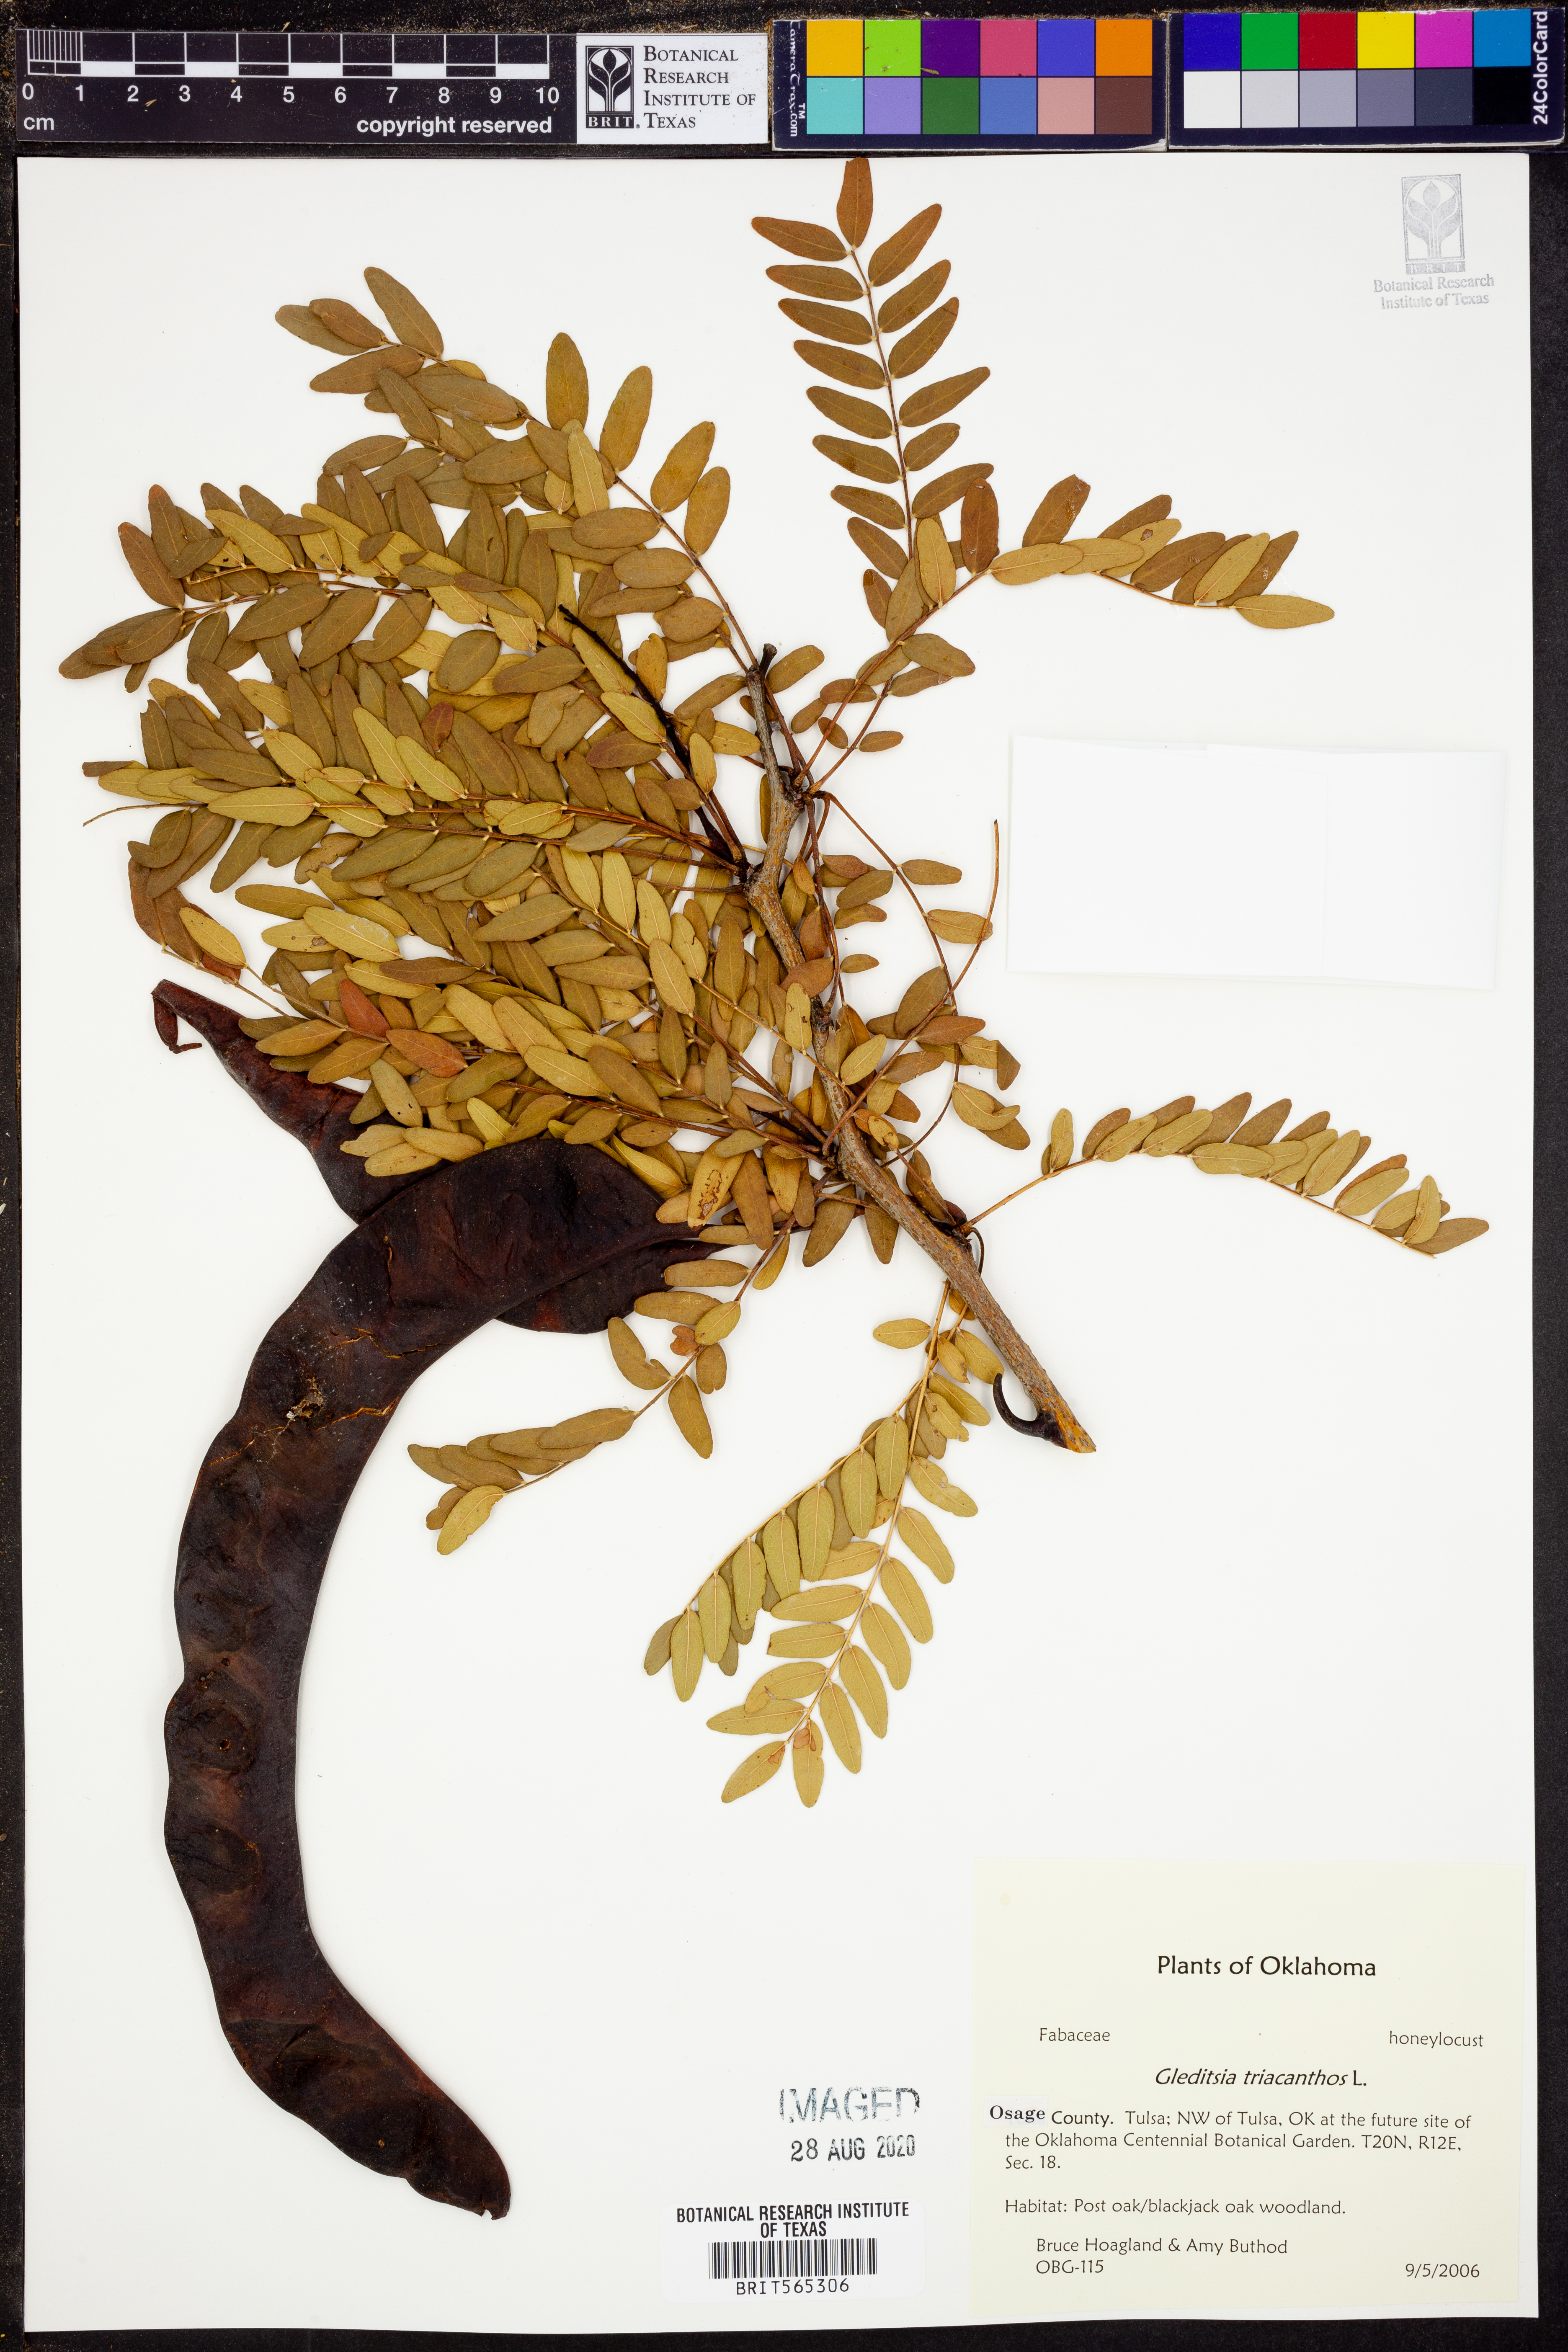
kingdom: Plantae
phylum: Tracheophyta
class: Magnoliopsida
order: Fabales
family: Fabaceae
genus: Gleditsia
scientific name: Gleditsia triacanthos
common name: Common honeylocust
